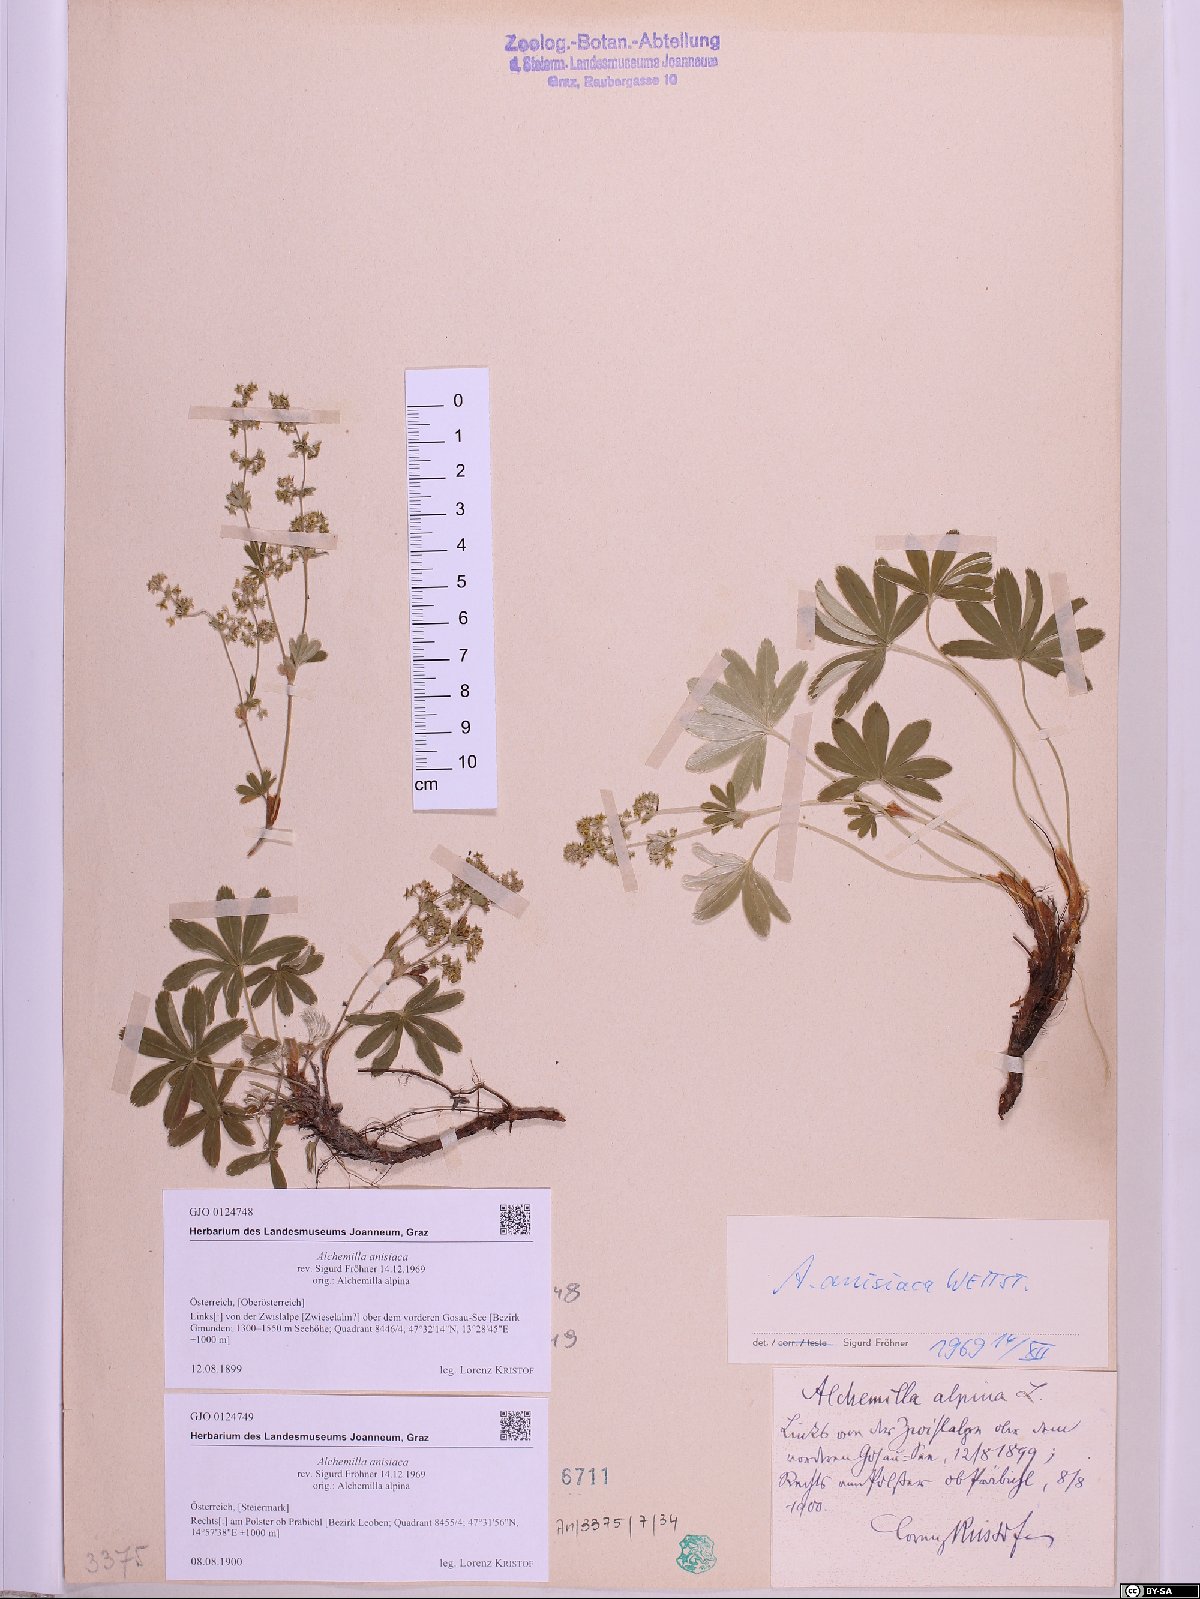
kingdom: Plantae
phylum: Tracheophyta
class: Magnoliopsida
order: Rosales
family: Rosaceae
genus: Alchemilla
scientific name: Alchemilla anisiaca
